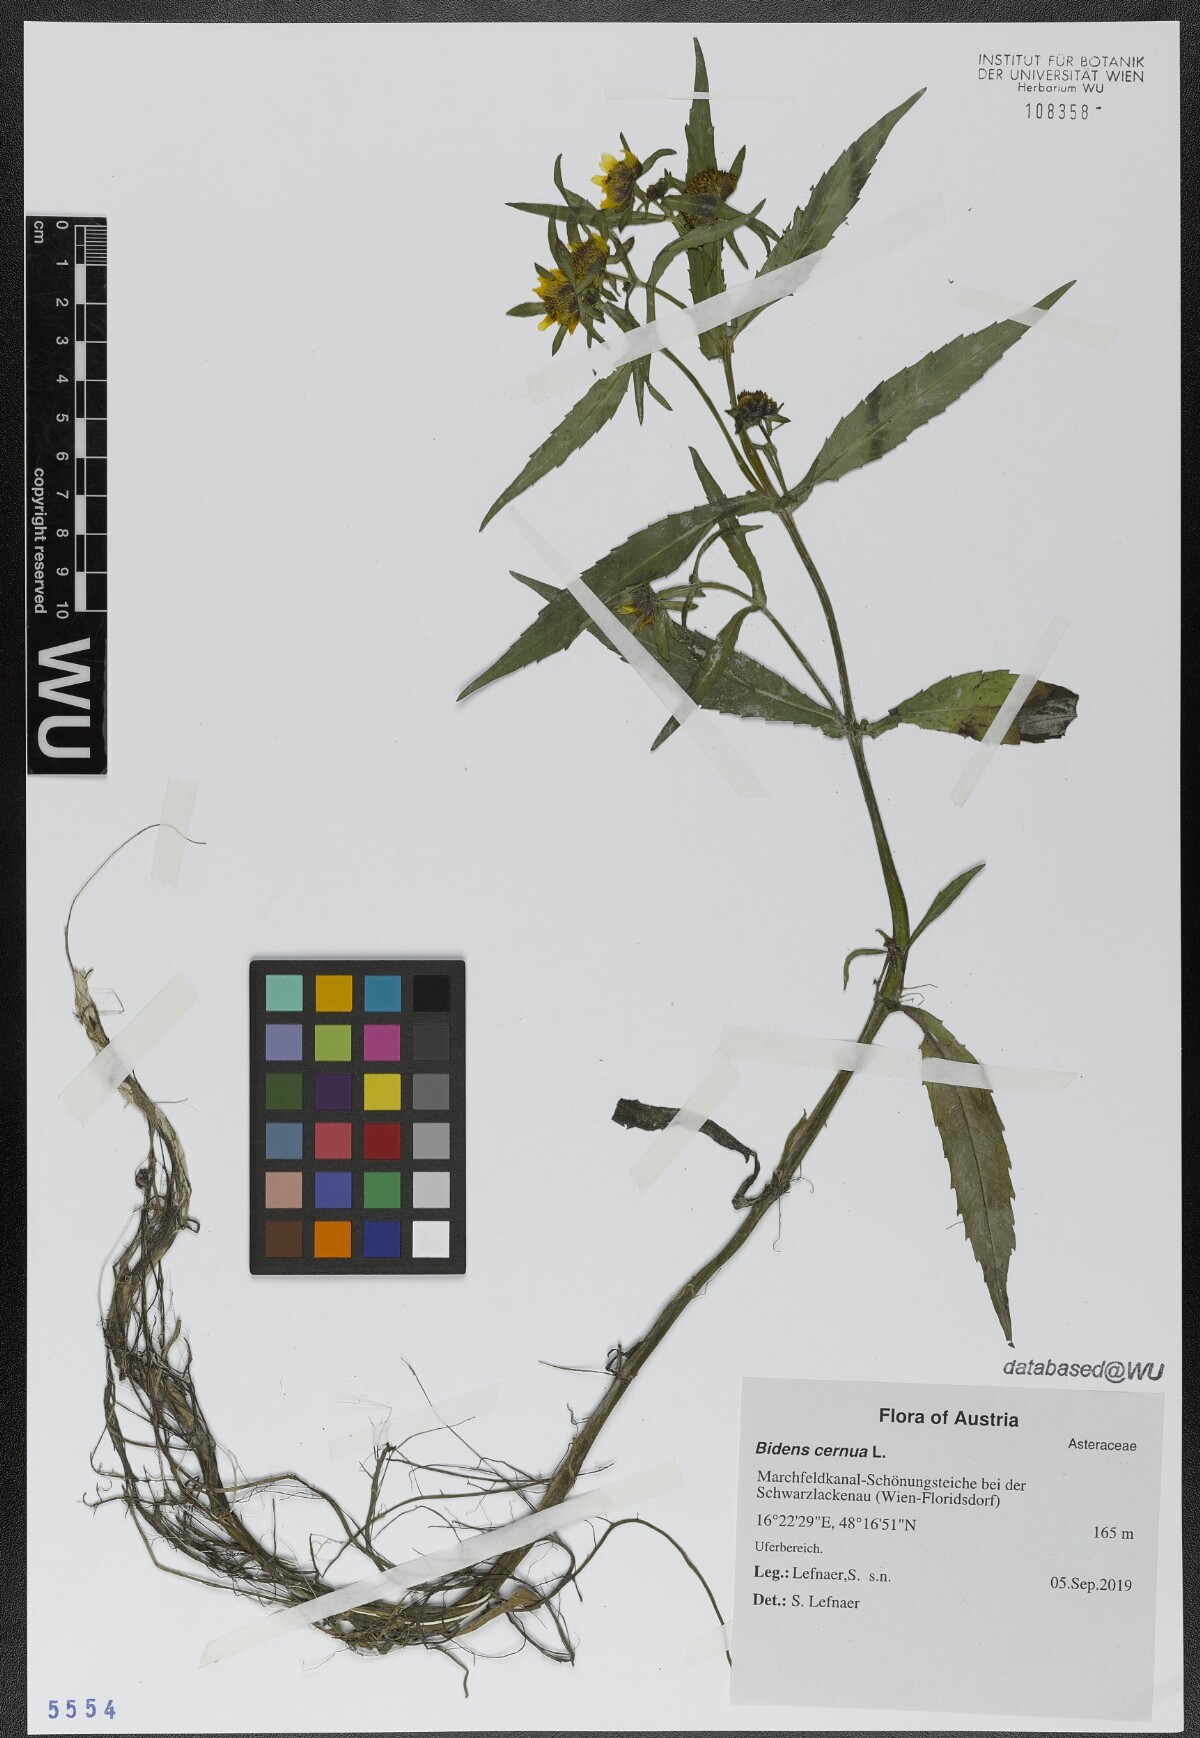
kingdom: Plantae
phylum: Tracheophyta
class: Magnoliopsida
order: Asterales
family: Asteraceae
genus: Bidens
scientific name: Bidens cernua
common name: Nodding bur-marigold
